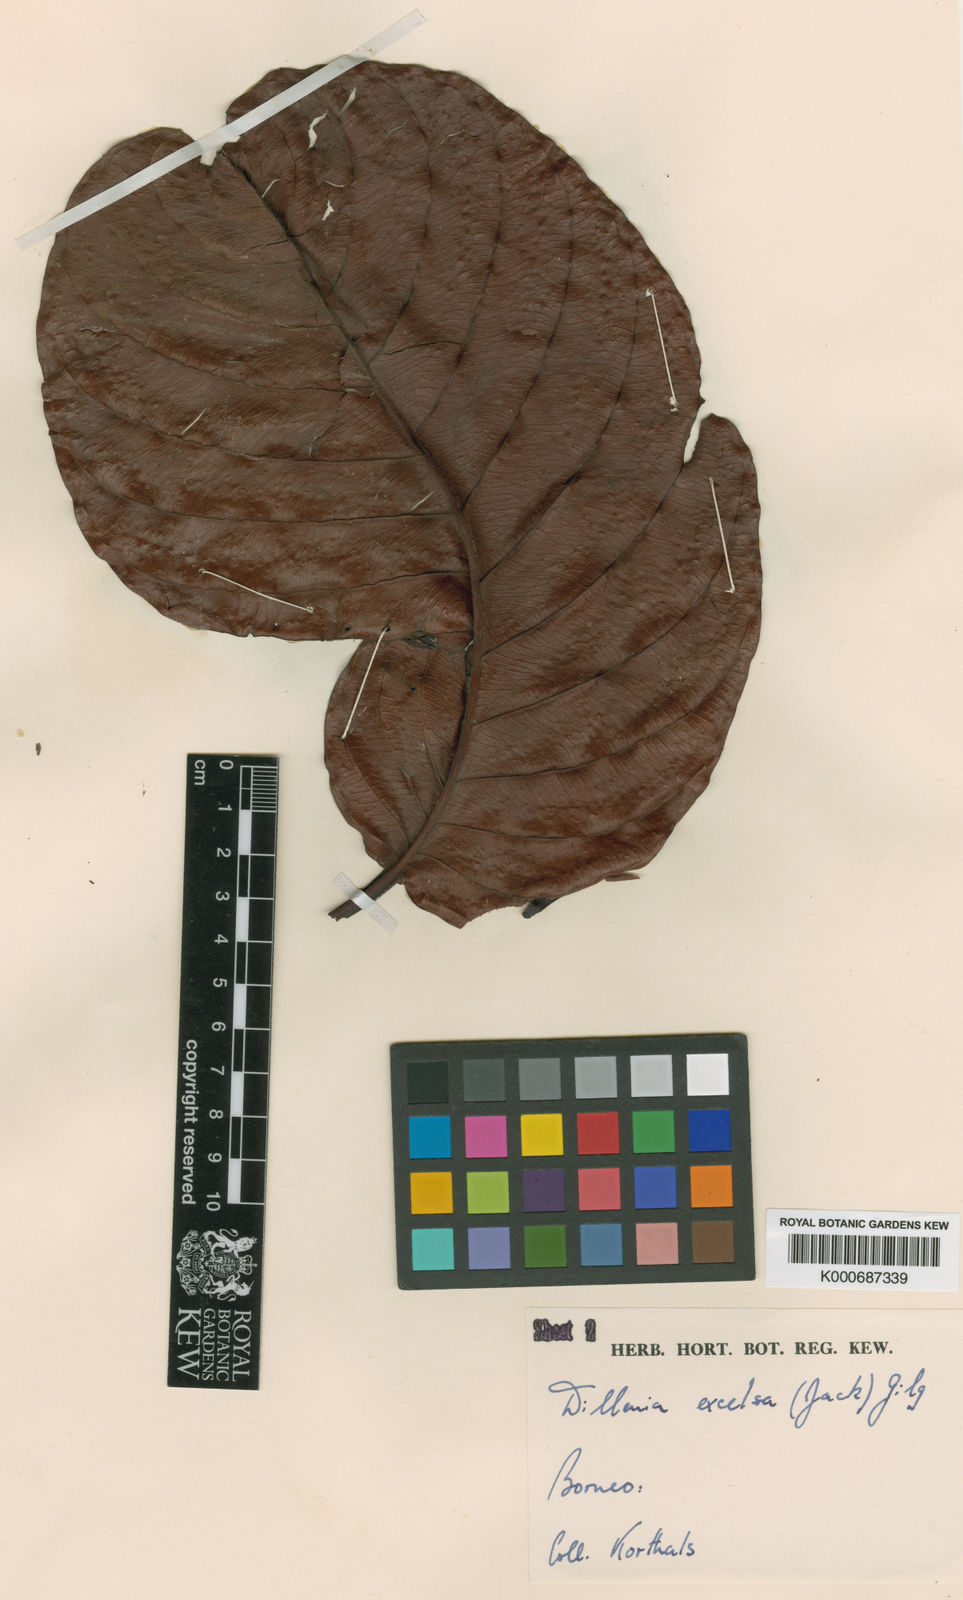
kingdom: Plantae
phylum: Tracheophyta
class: Magnoliopsida
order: Dilleniales
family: Dilleniaceae
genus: Dillenia
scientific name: Dillenia
